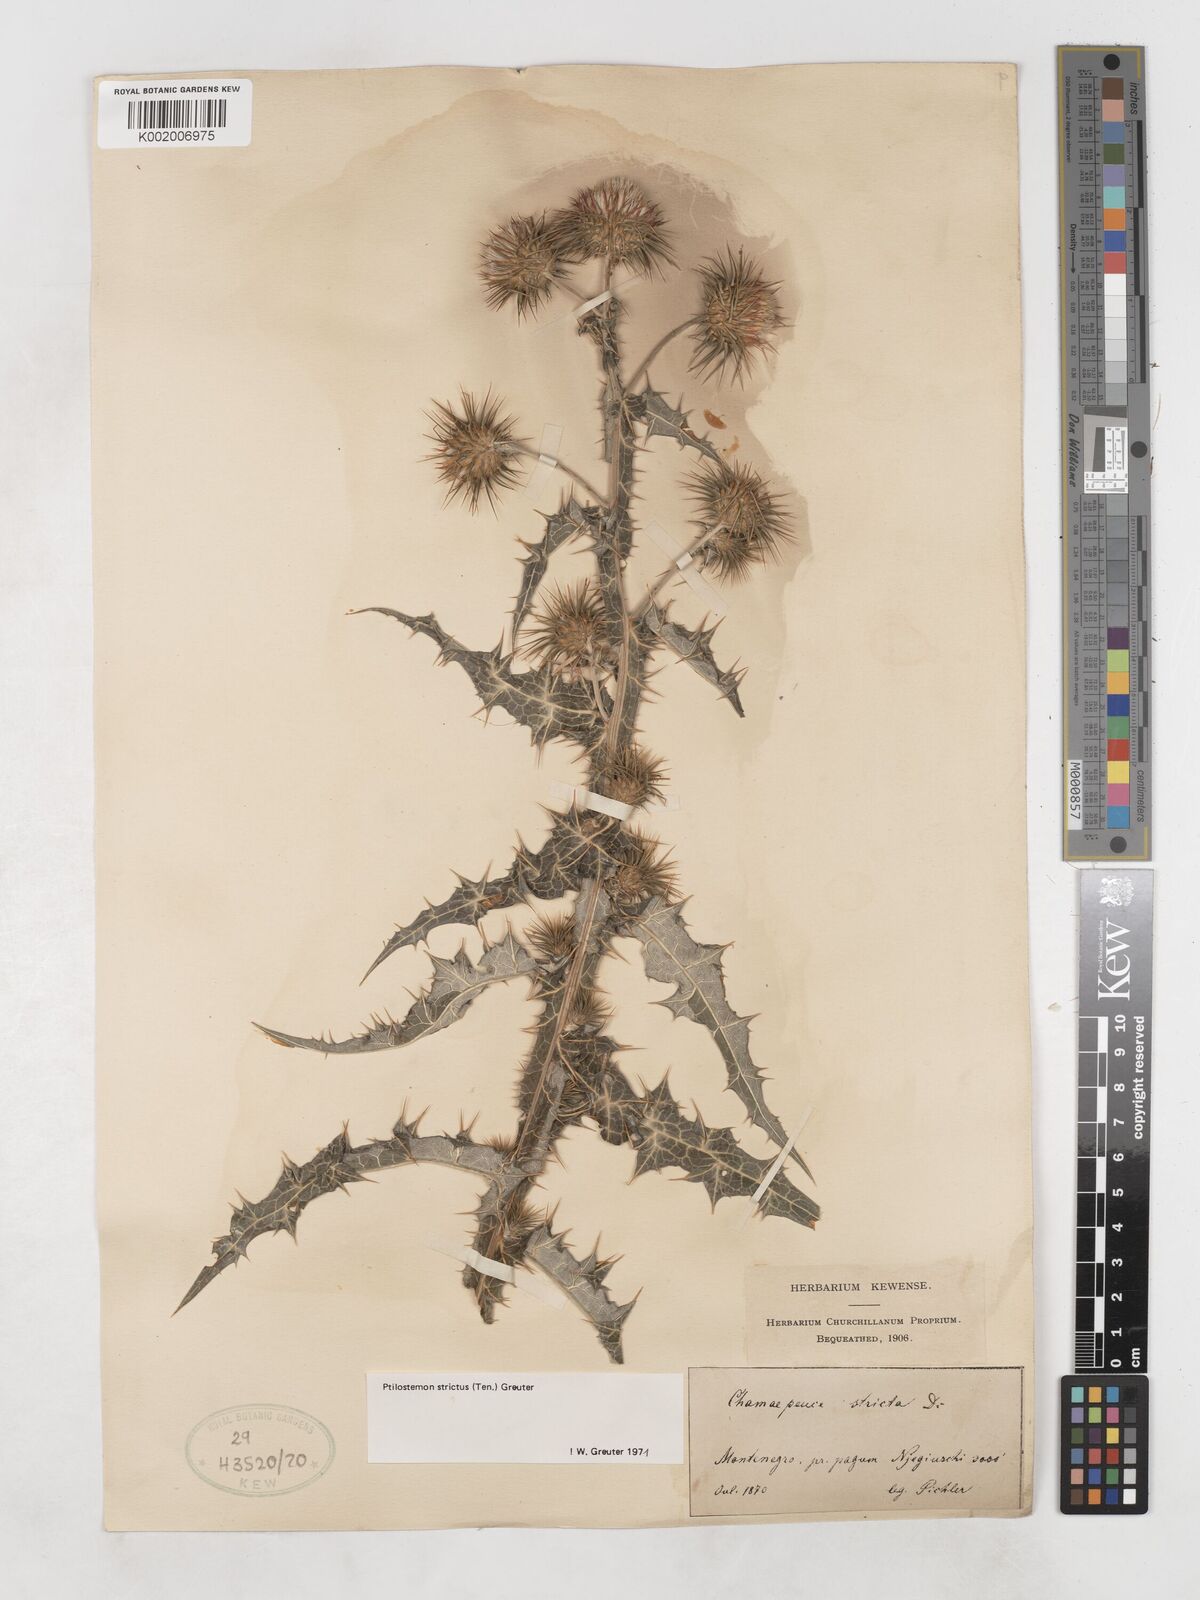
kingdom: Plantae
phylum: Tracheophyta
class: Magnoliopsida
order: Asterales
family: Asteraceae
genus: Ptilostemon
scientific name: Ptilostemon strictus
